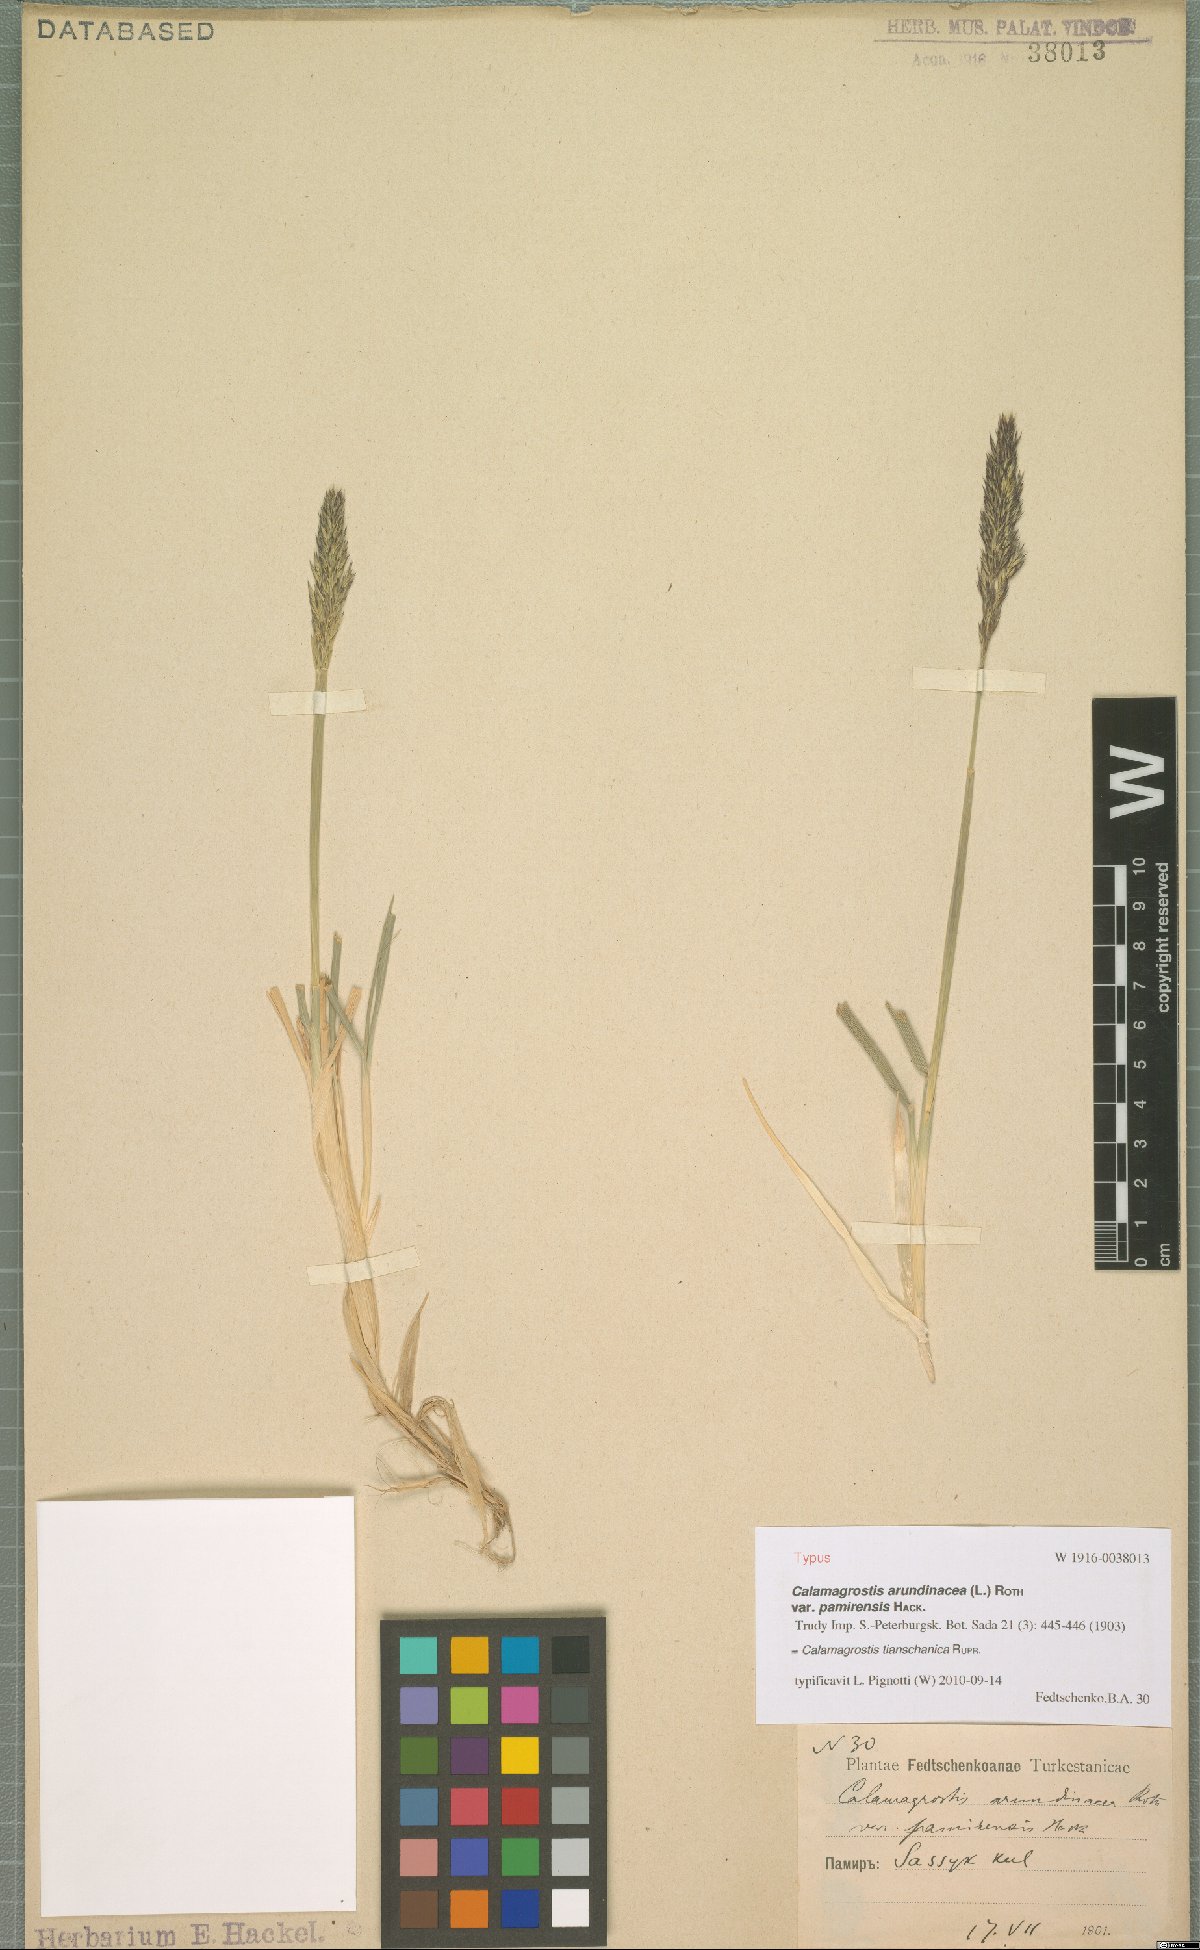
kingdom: Plantae
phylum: Tracheophyta
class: Liliopsida
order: Poales
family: Poaceae
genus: Calamagrostis
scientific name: Calamagrostis tianschanica
